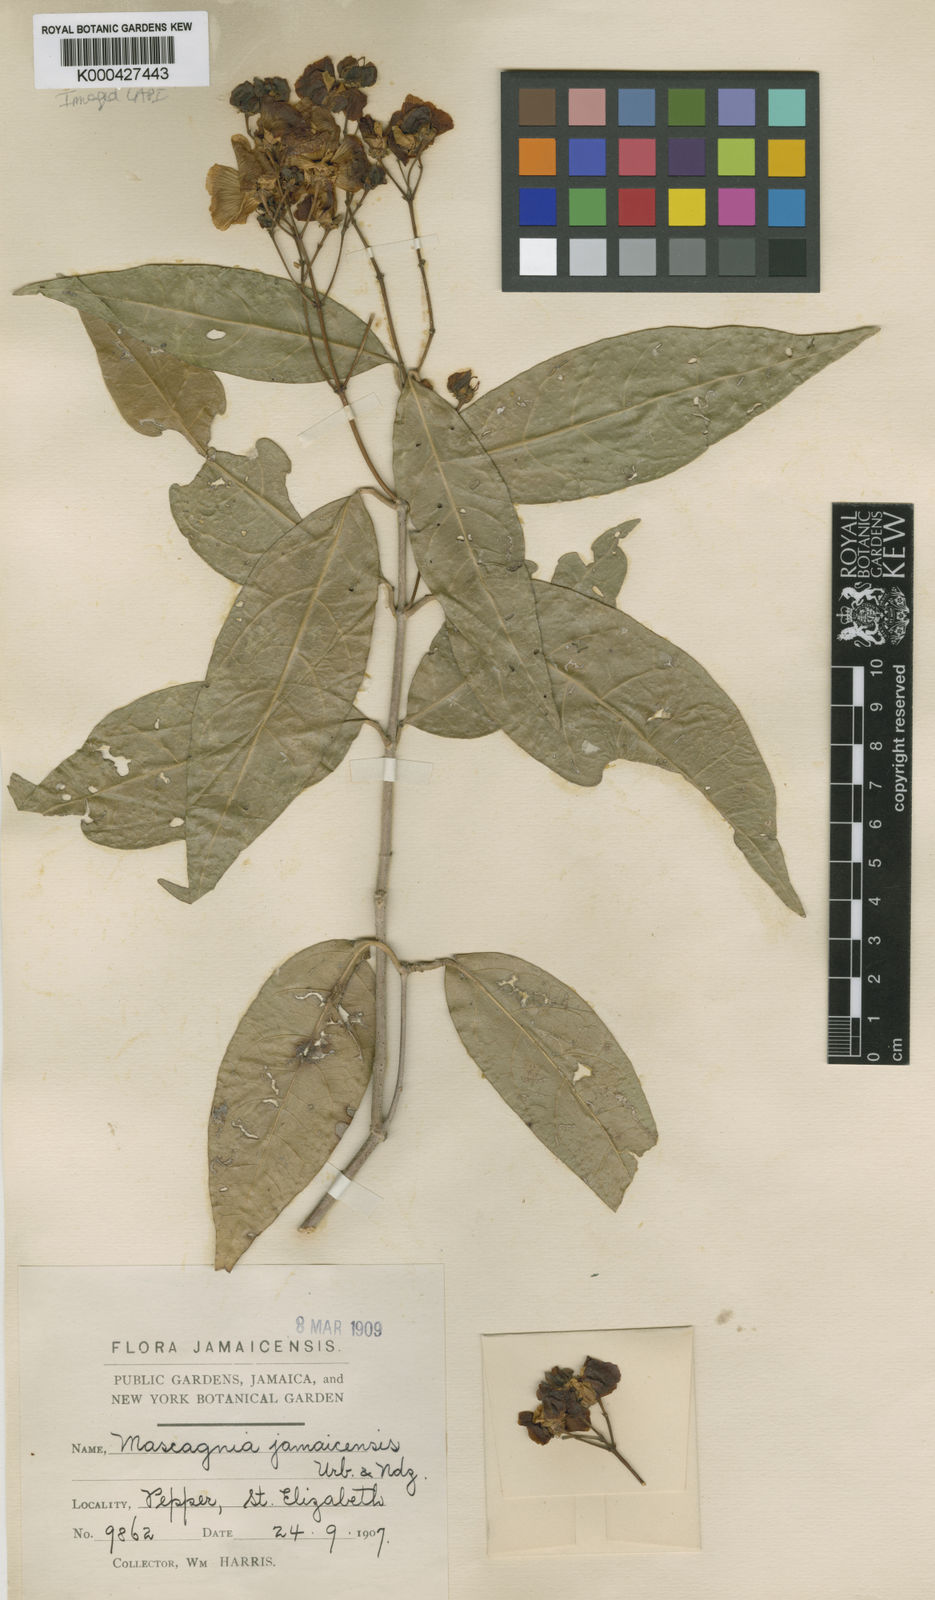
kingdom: Plantae
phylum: Tracheophyta
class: Magnoliopsida
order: Malpighiales
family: Malpighiaceae
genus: Adelphia
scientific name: Adelphia hiraea
